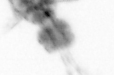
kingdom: Animalia
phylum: Arthropoda
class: Copepoda
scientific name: Copepoda
